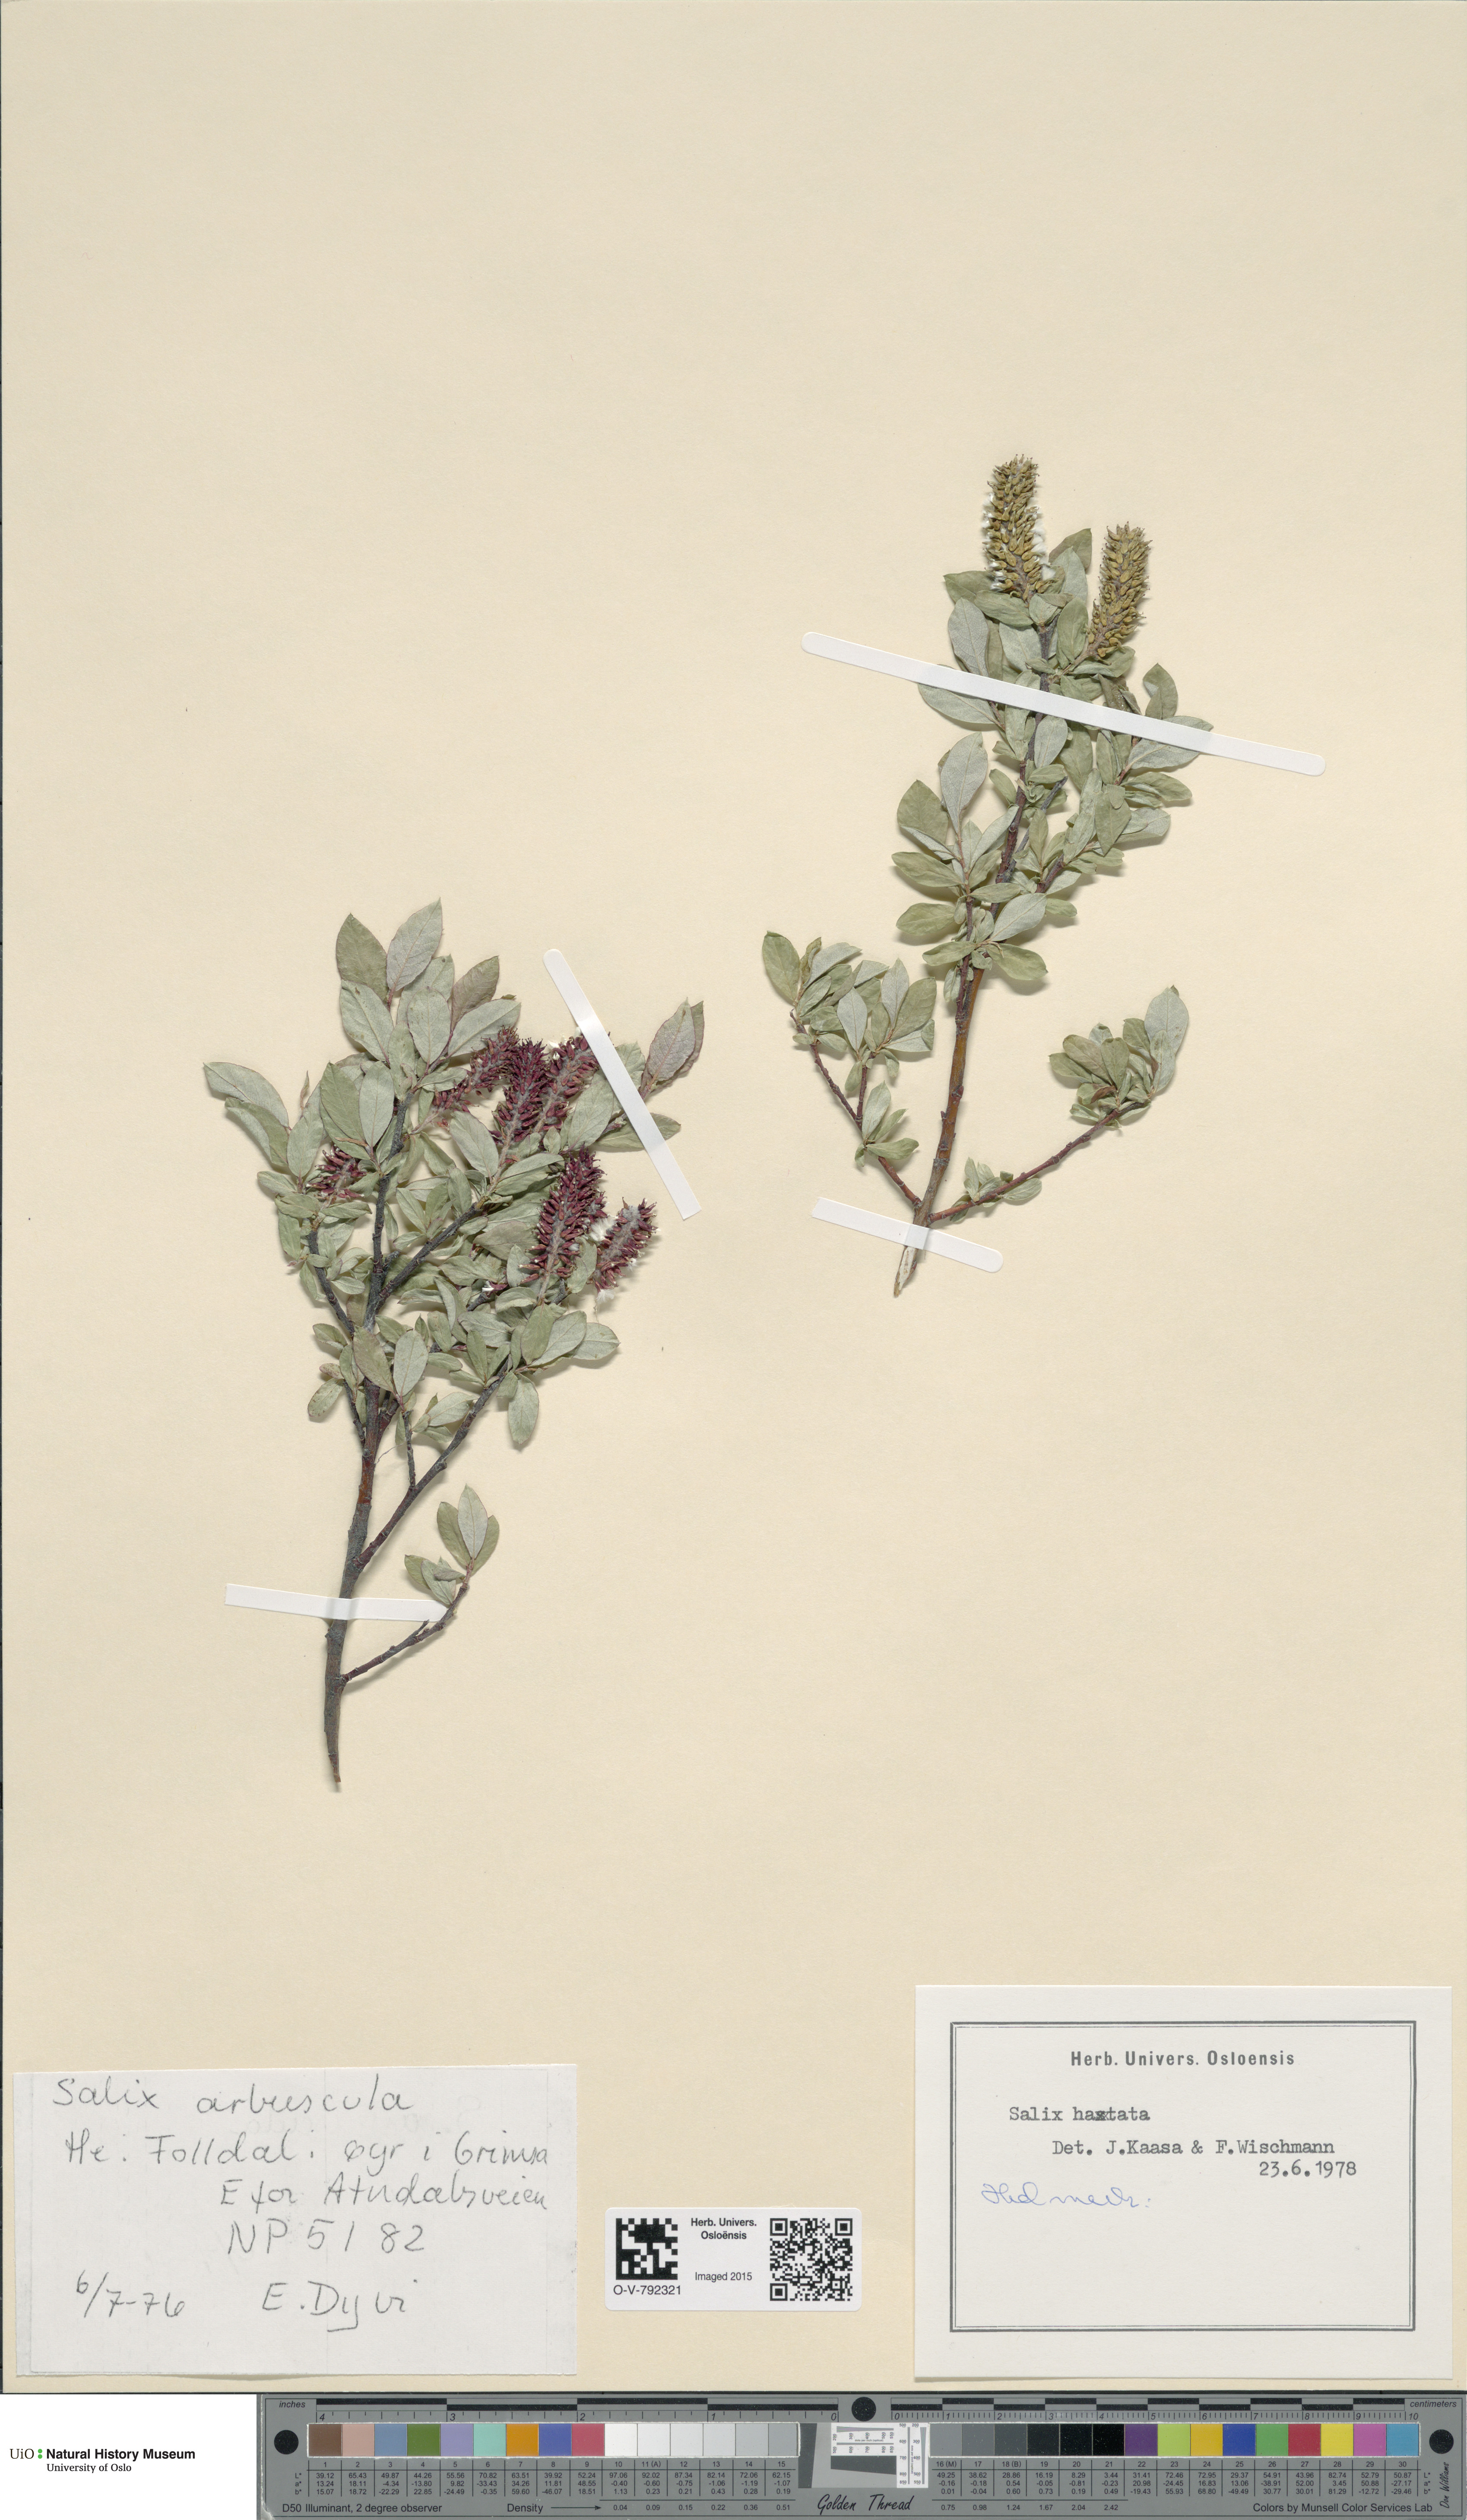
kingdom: Plantae
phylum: Tracheophyta
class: Magnoliopsida
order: Malpighiales
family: Salicaceae
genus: Salix
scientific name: Salix hastata
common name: Halberd willow
